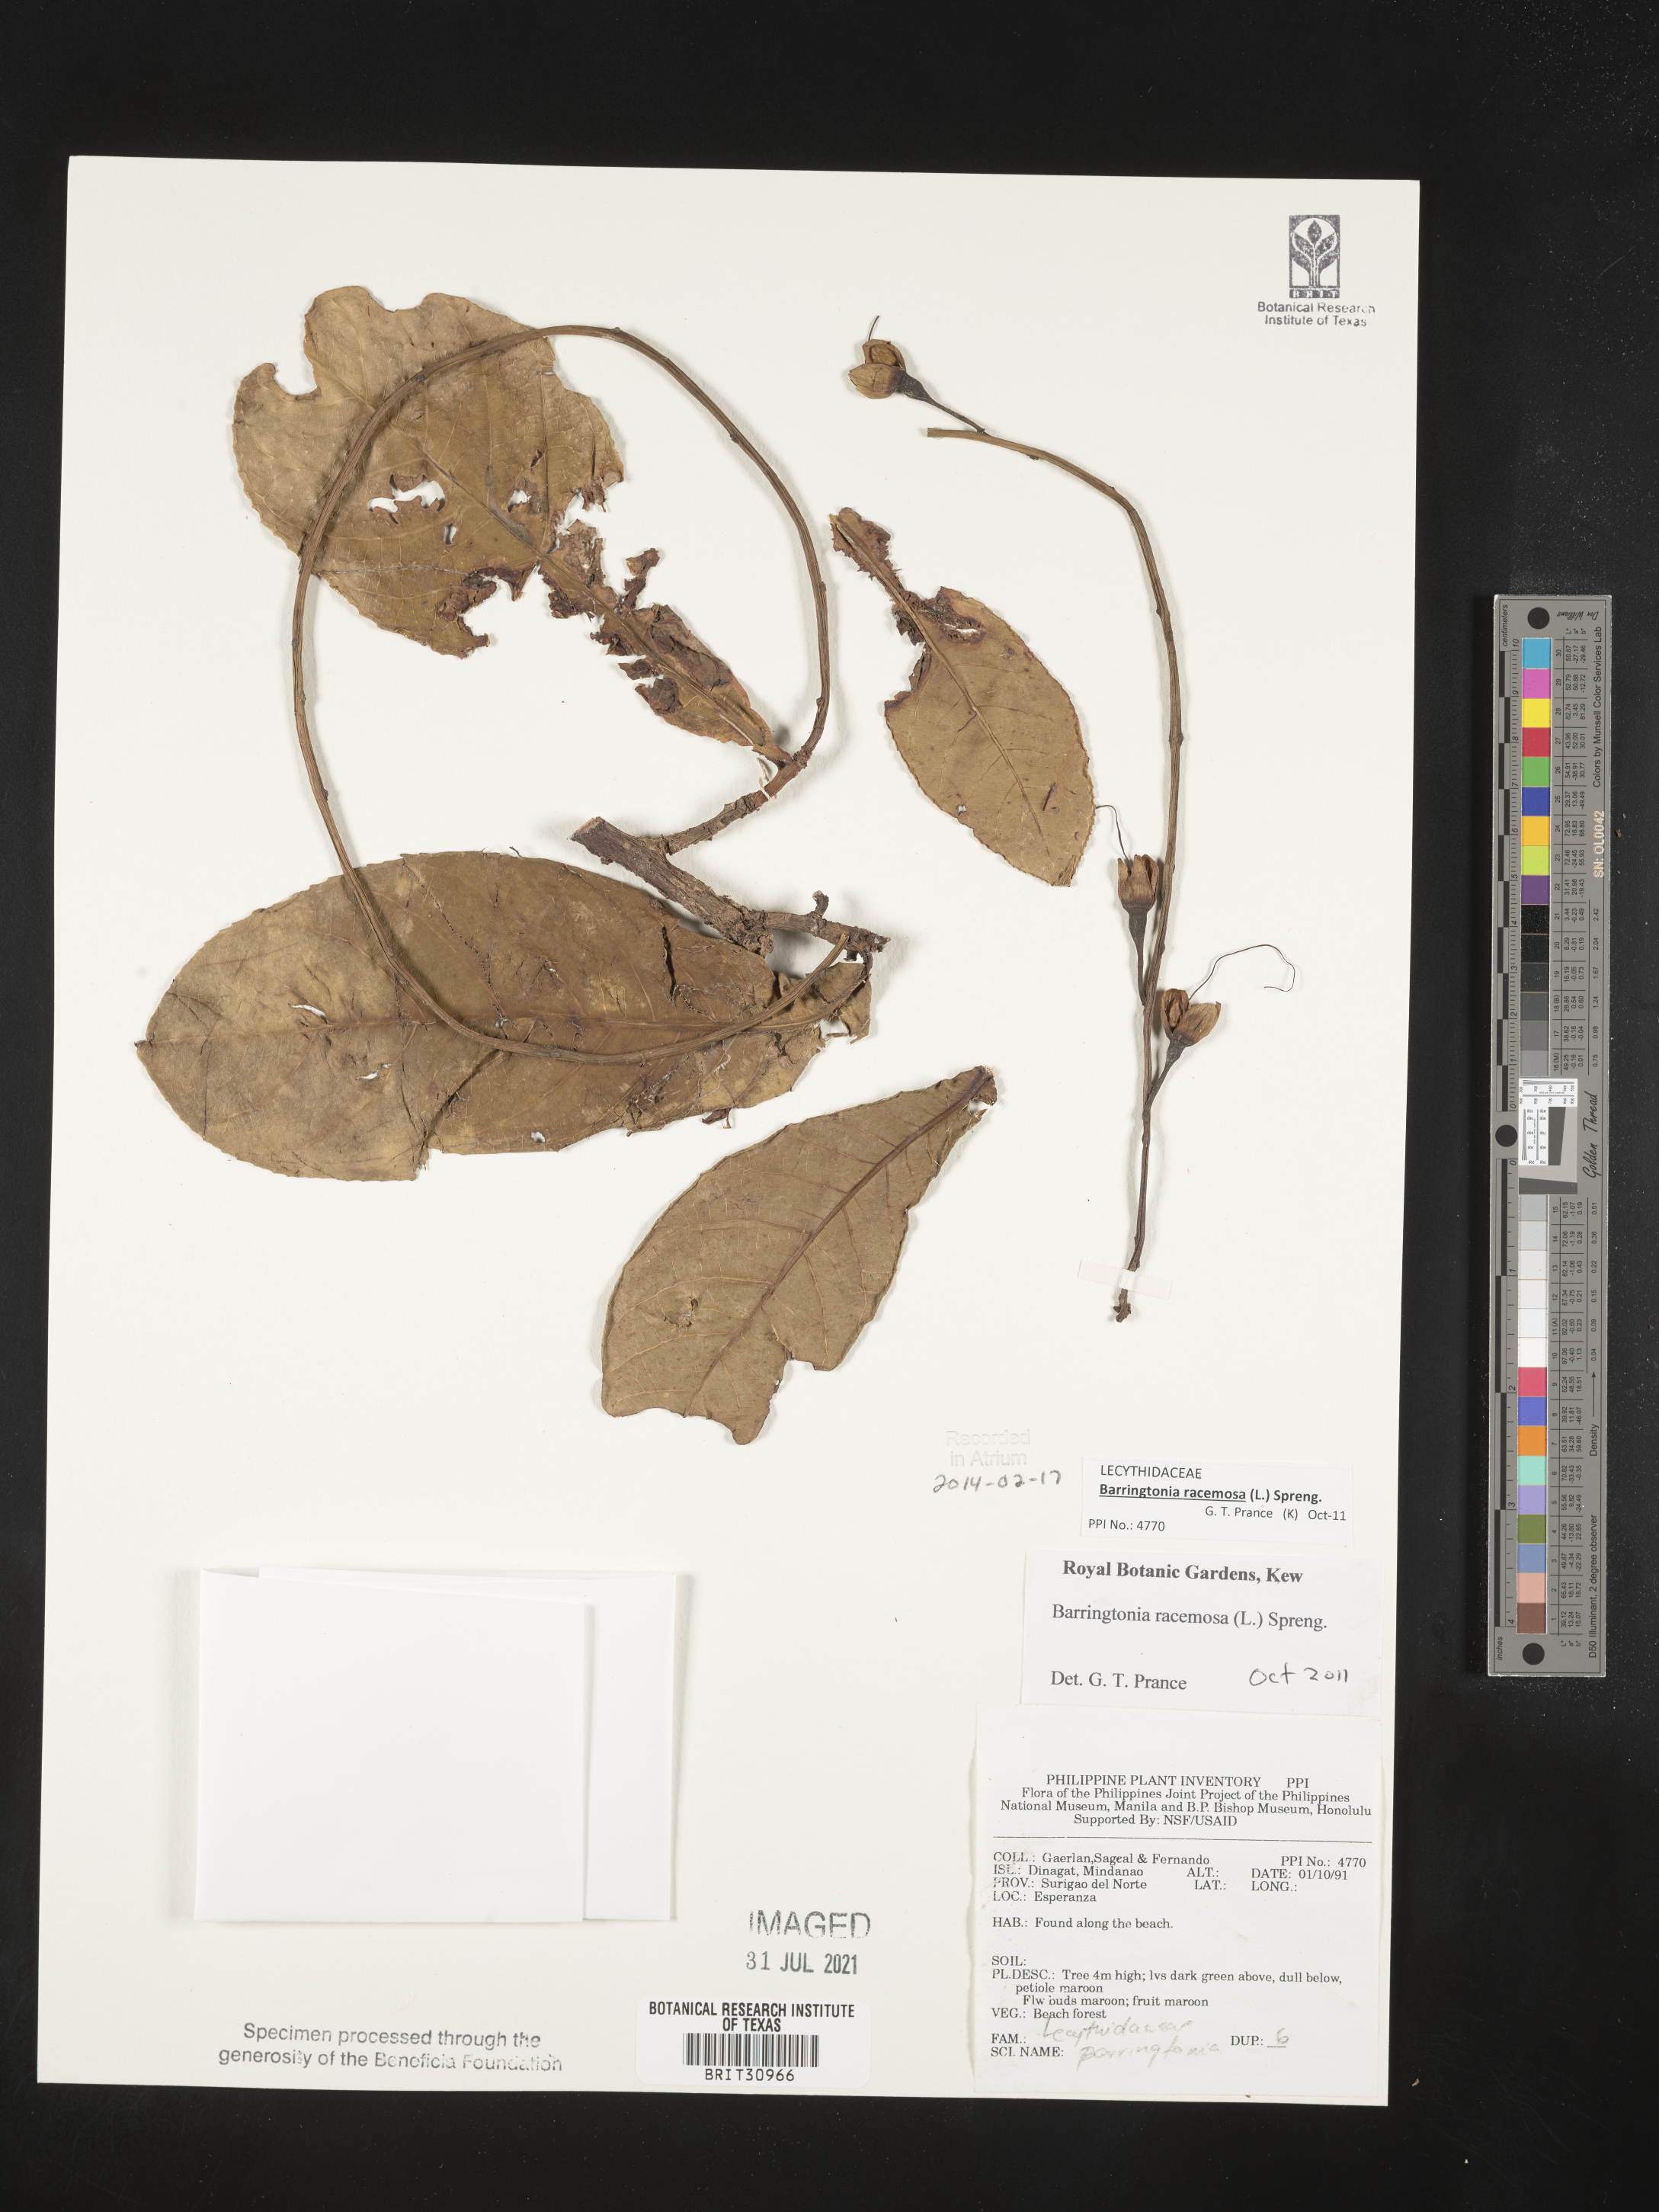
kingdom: Plantae
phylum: Tracheophyta
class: Magnoliopsida
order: Ericales
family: Lecythidaceae
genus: Barringtonia
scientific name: Barringtonia
